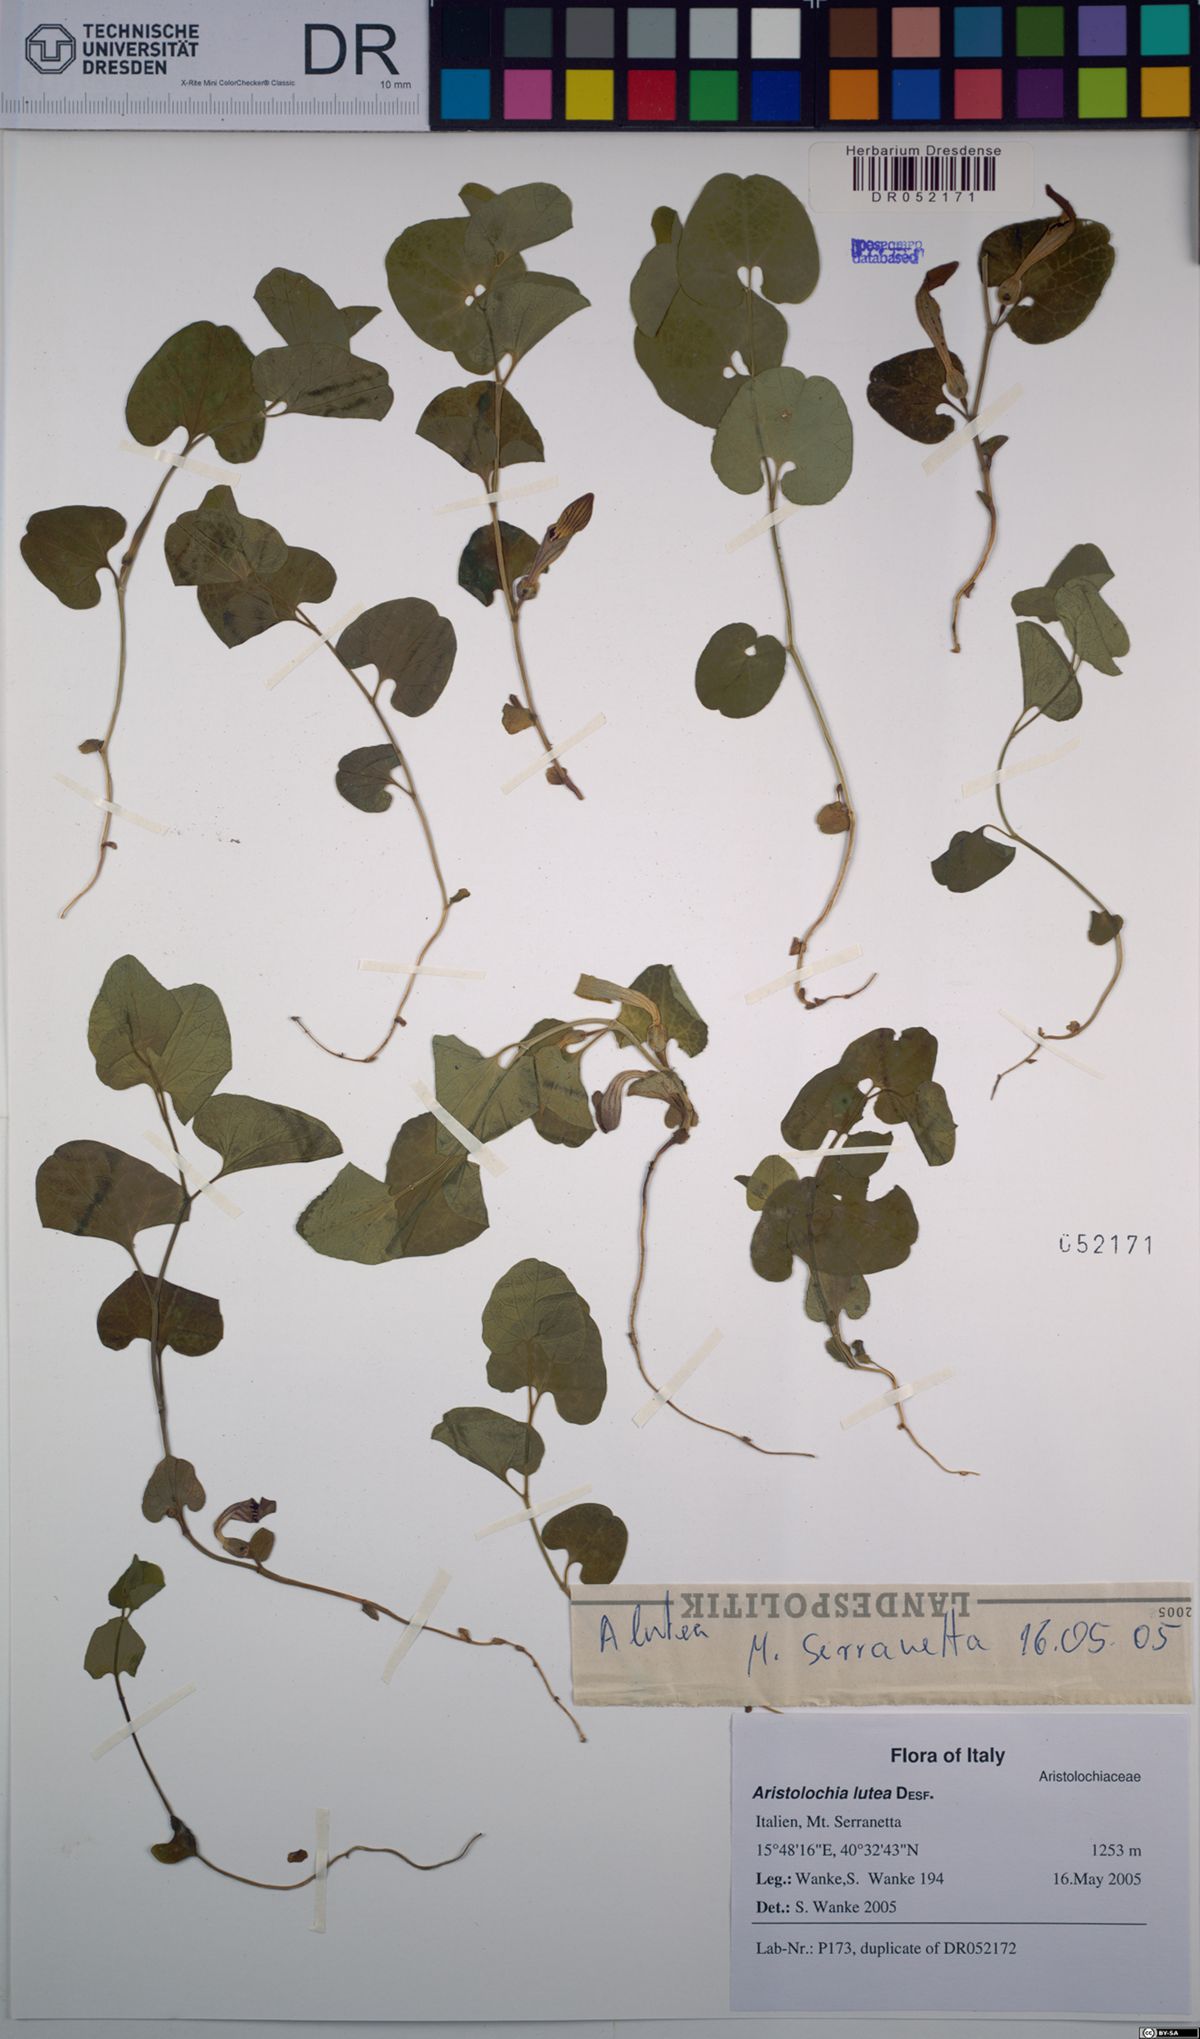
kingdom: Plantae
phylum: Tracheophyta
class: Magnoliopsida
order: Piperales
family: Aristolochiaceae
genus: Aristolochia
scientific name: Aristolochia lutea
